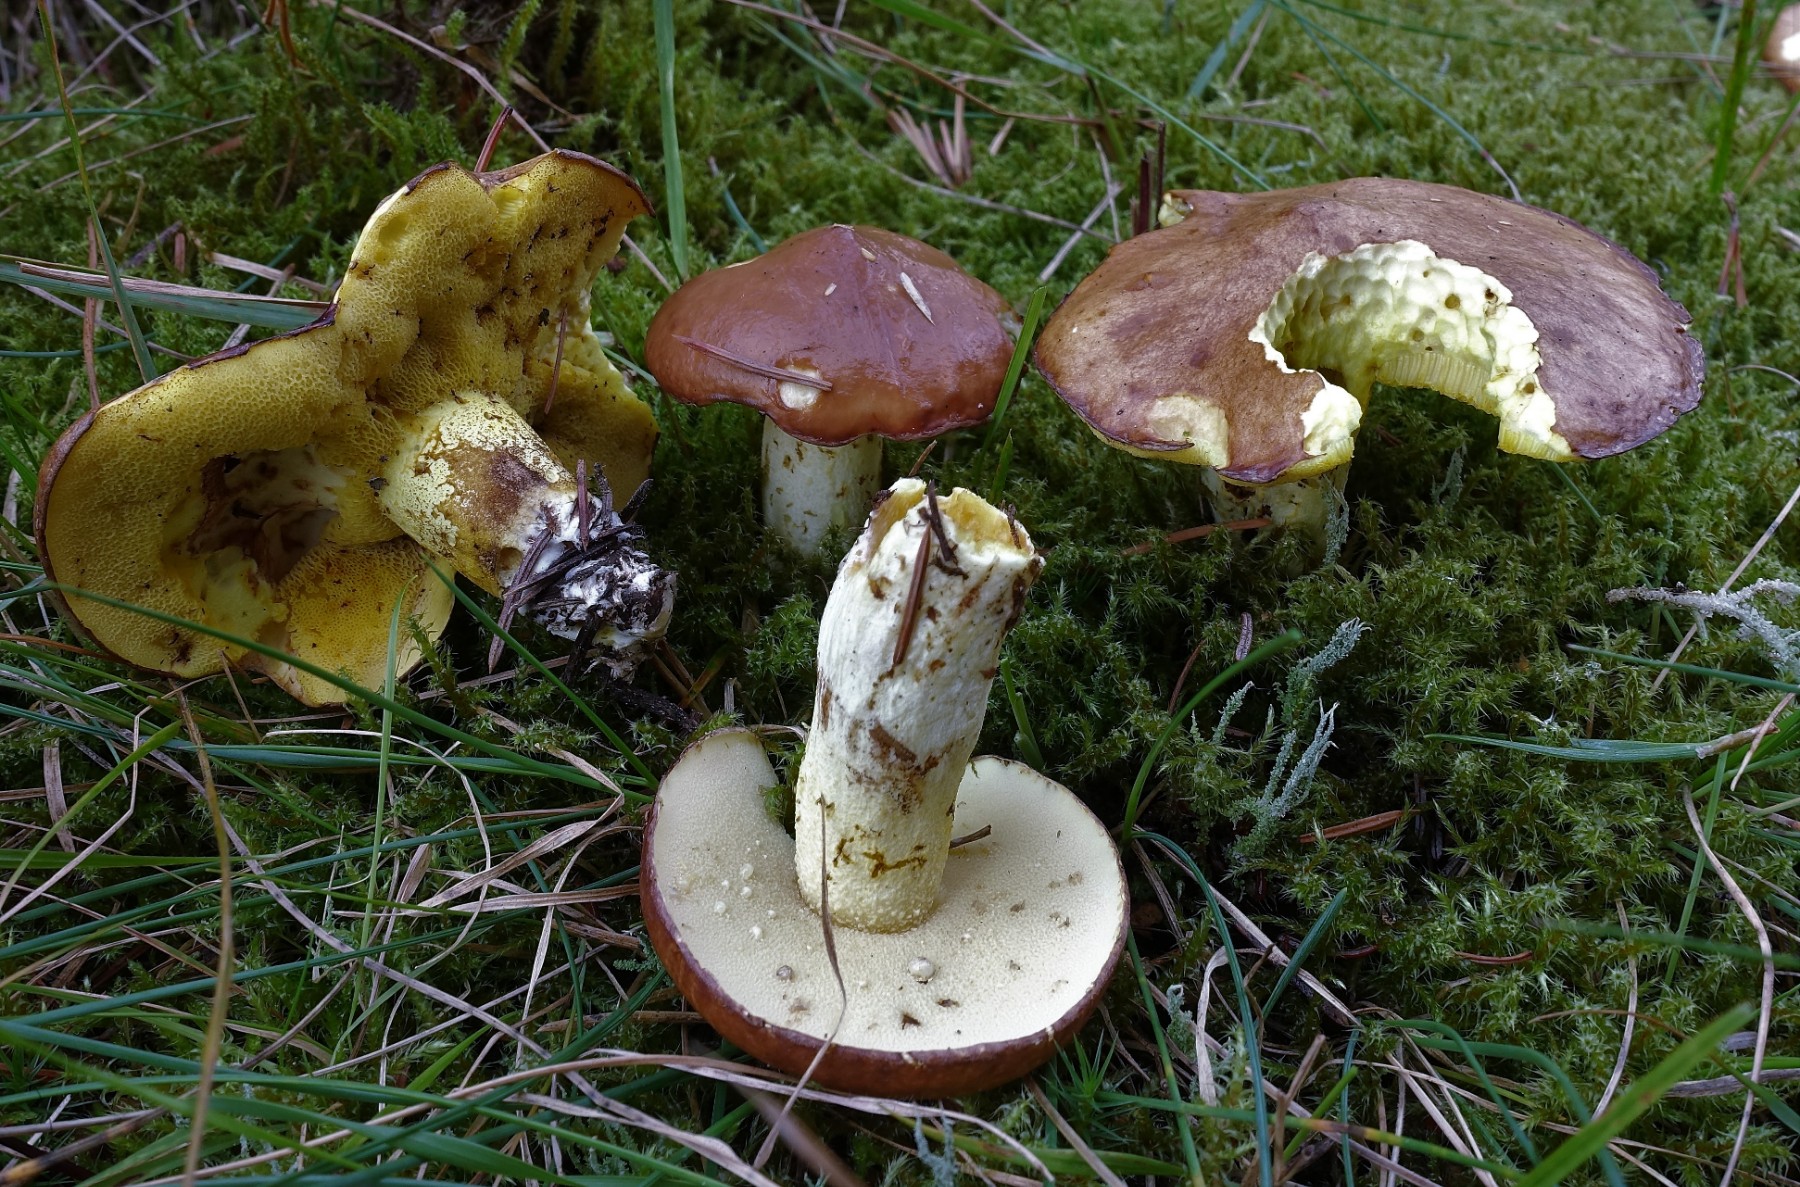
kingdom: Fungi
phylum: Basidiomycota
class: Agaricomycetes
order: Boletales
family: Suillaceae
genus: Suillus
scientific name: Suillus granulatus
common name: kornet slimrørhat
